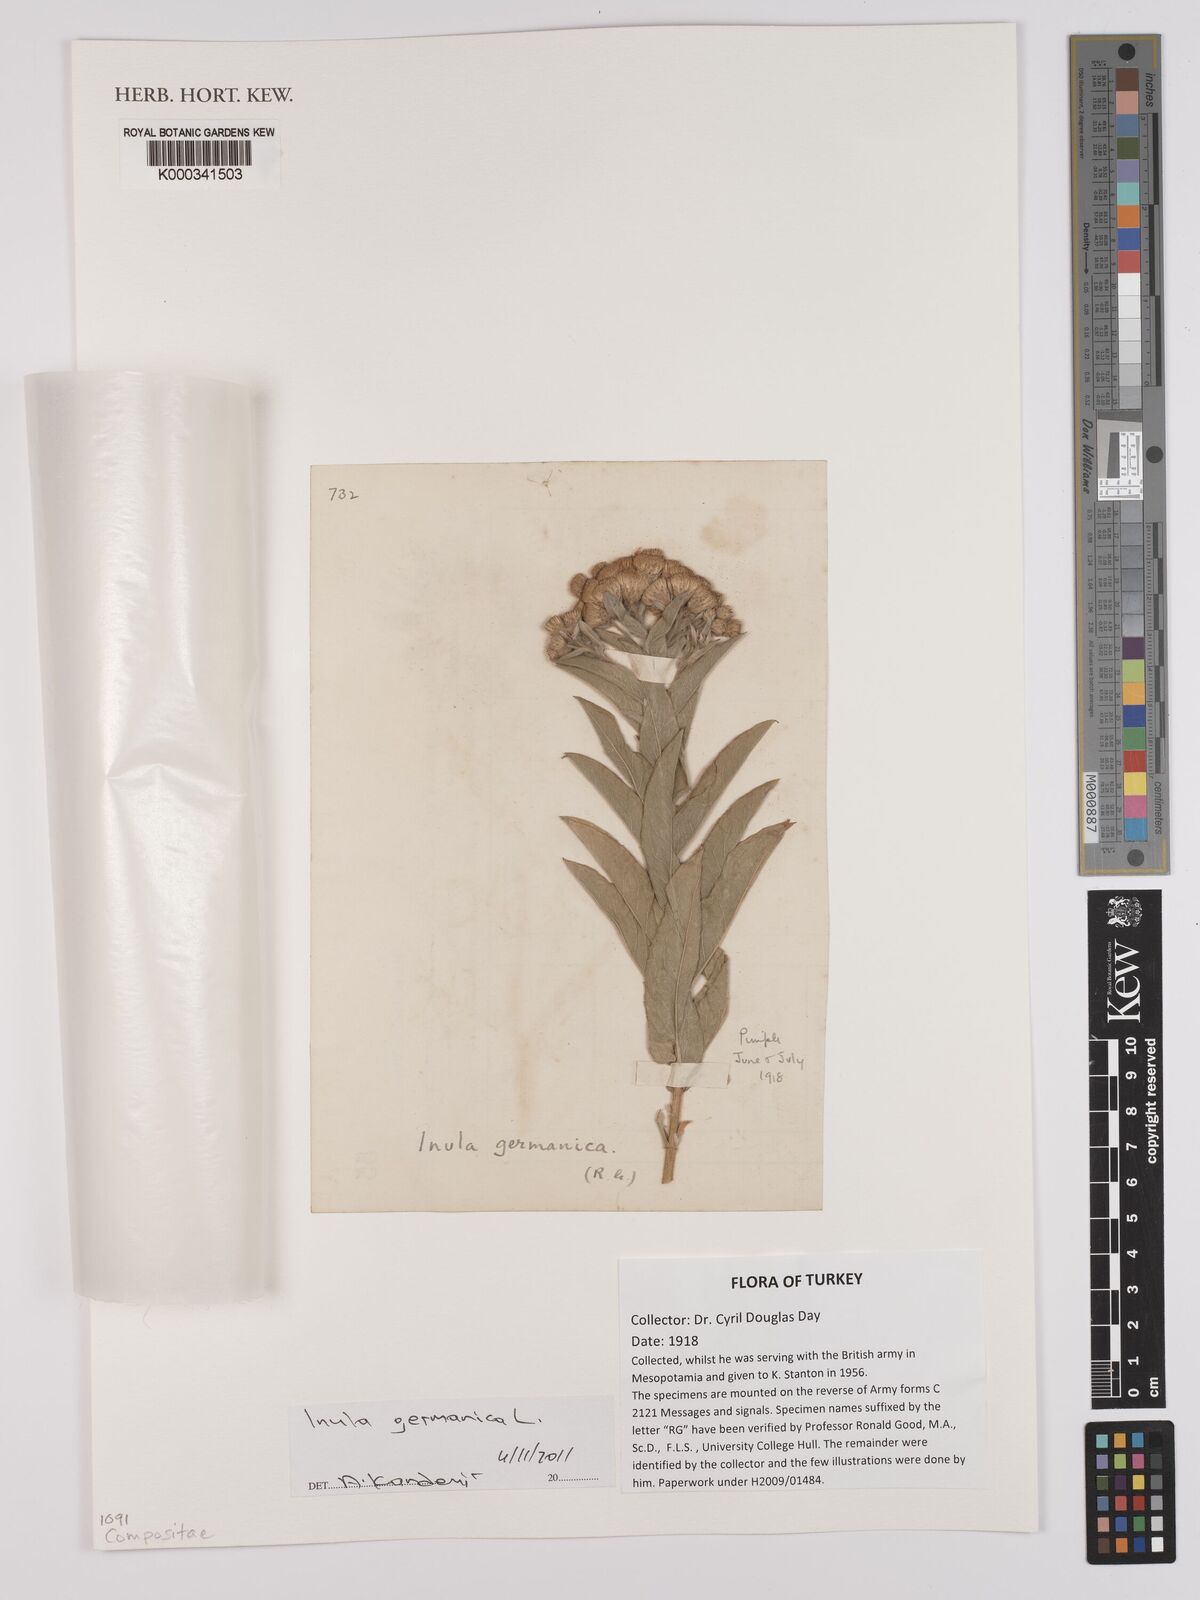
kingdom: Plantae
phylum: Tracheophyta
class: Magnoliopsida
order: Asterales
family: Asteraceae
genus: Pentanema
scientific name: Pentanema germanicum
